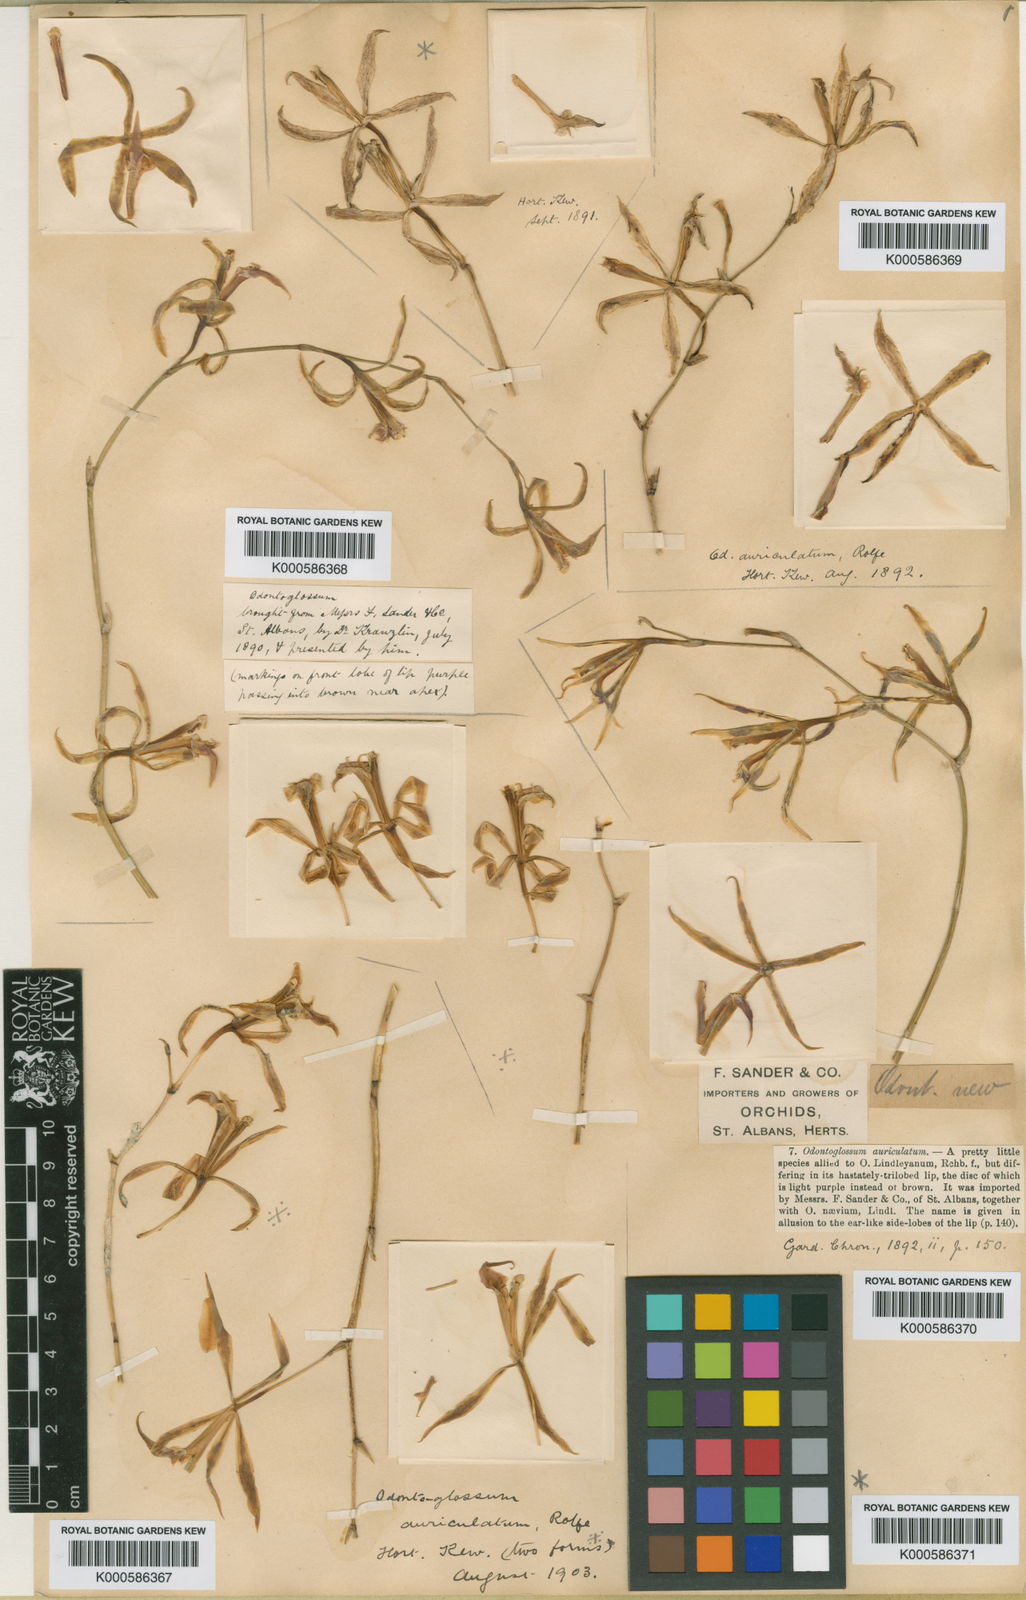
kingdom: Plantae
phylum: Tracheophyta
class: Liliopsida
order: Asparagales
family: Orchidaceae
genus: Oncidium
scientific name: Oncidium auriculatum
